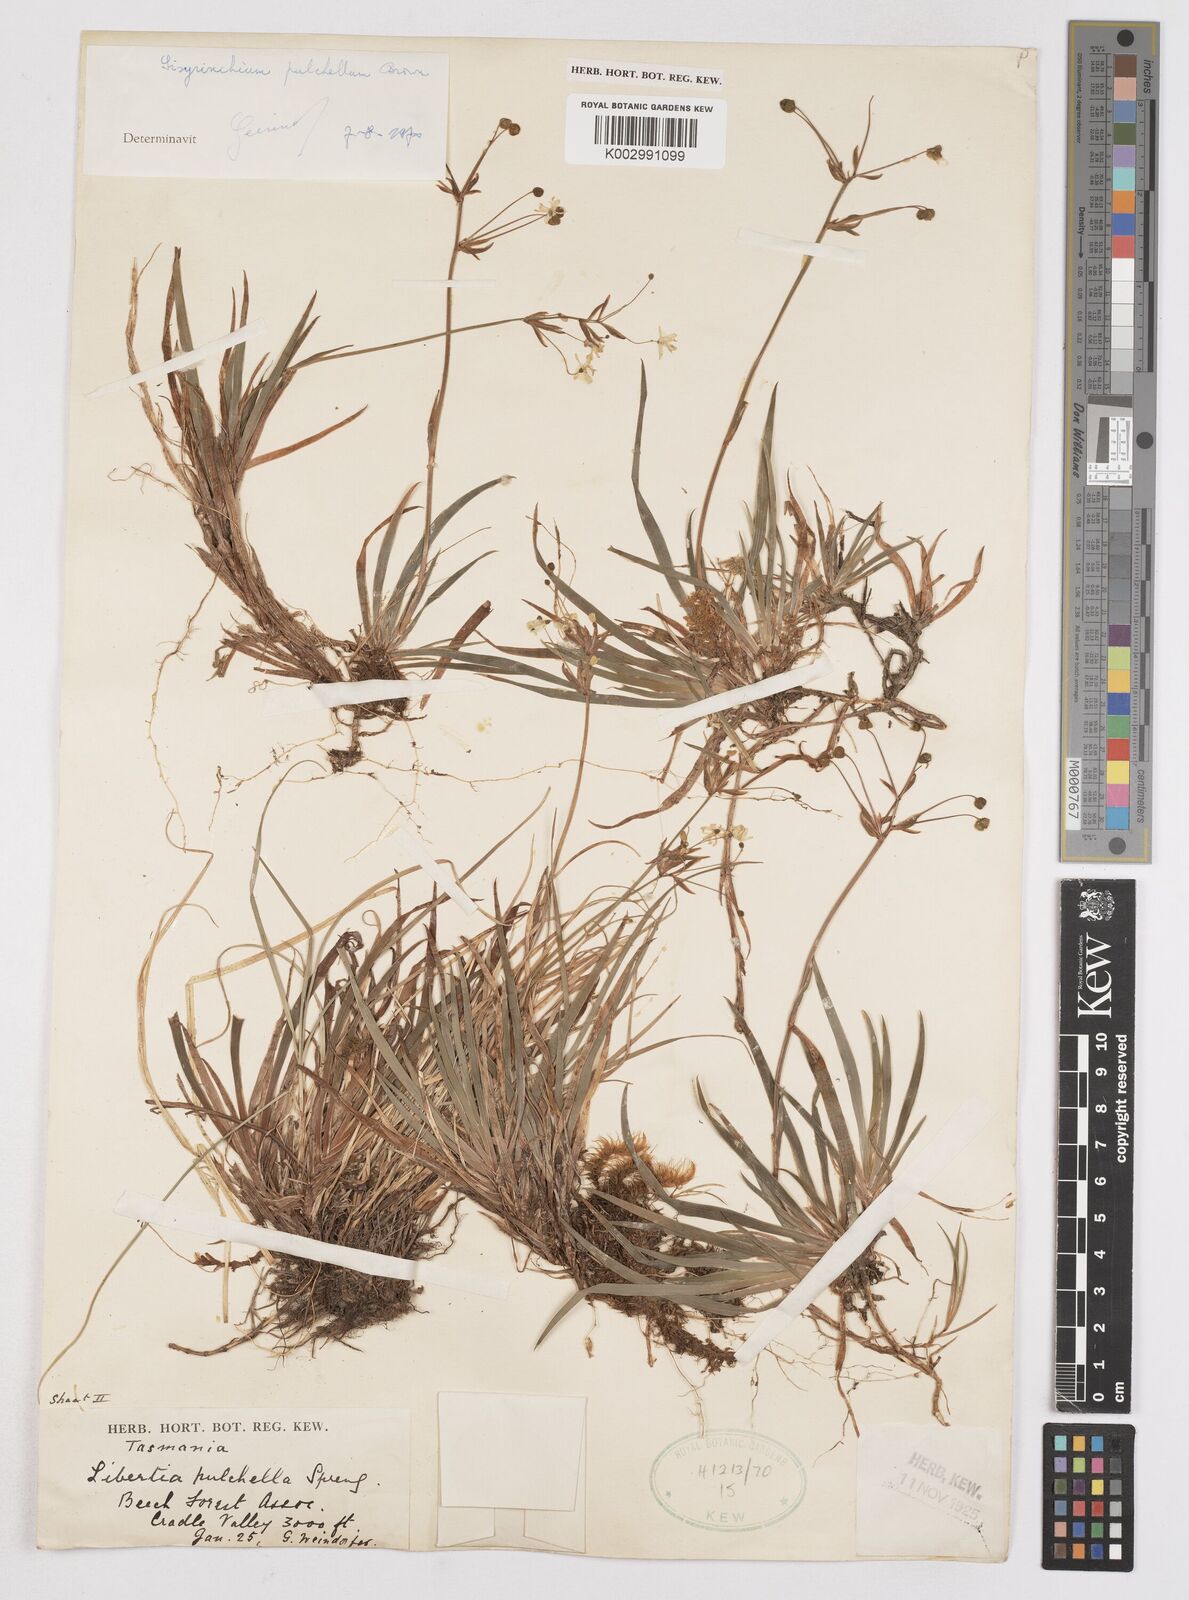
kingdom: Plantae
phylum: Tracheophyta
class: Liliopsida
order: Asparagales
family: Iridaceae
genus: Libertia
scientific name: Libertia pulchella
